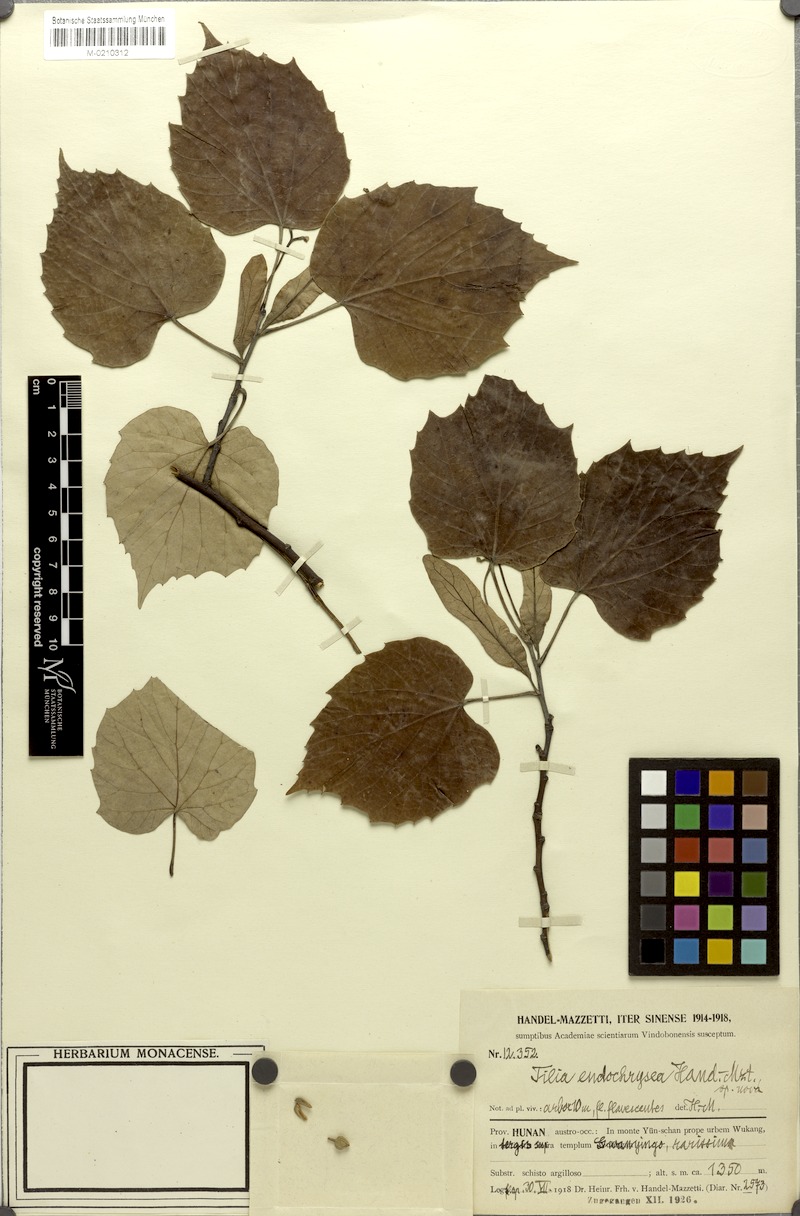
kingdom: Plantae
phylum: Tracheophyta
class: Magnoliopsida
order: Malvales
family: Malvaceae
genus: Tilia
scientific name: Tilia endochrysea
